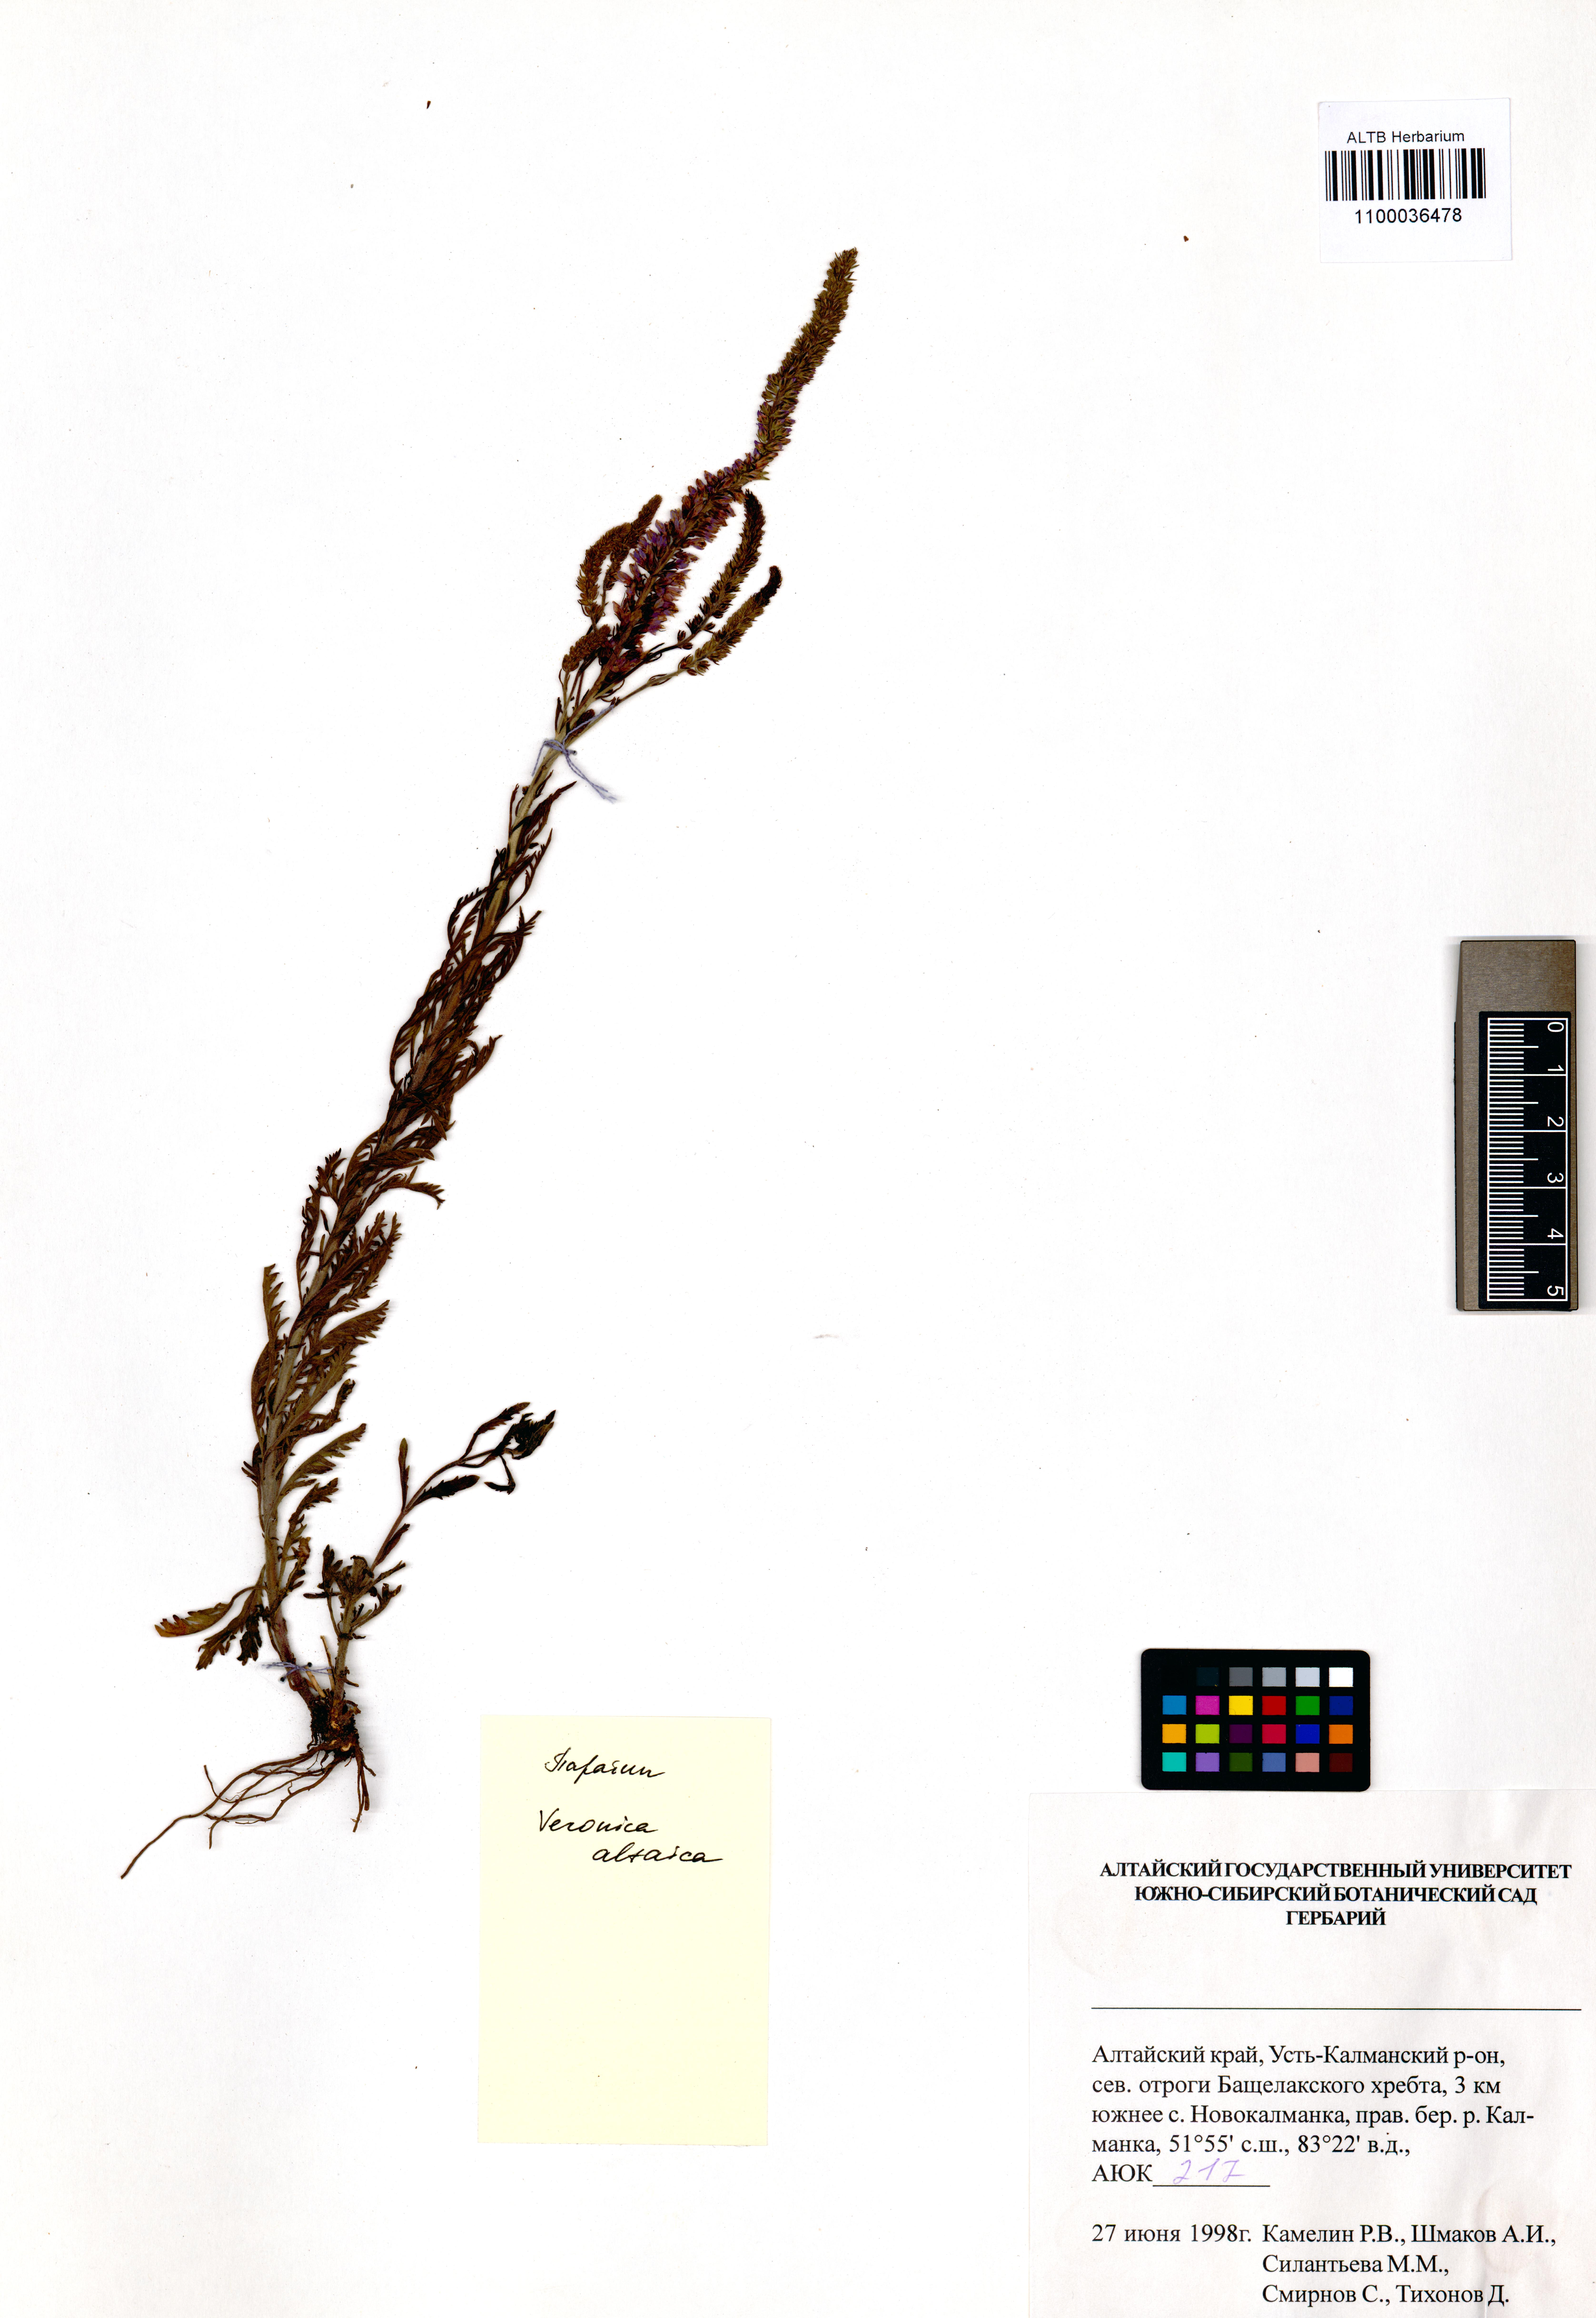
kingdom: Plantae
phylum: Tracheophyta
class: Magnoliopsida
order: Lamiales
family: Plantaginaceae
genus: Veronica
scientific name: Veronica altaica
